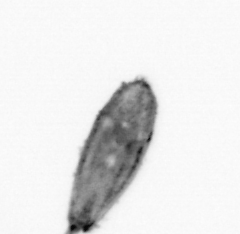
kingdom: Animalia
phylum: Arthropoda
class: Maxillopoda
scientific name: Maxillopoda
